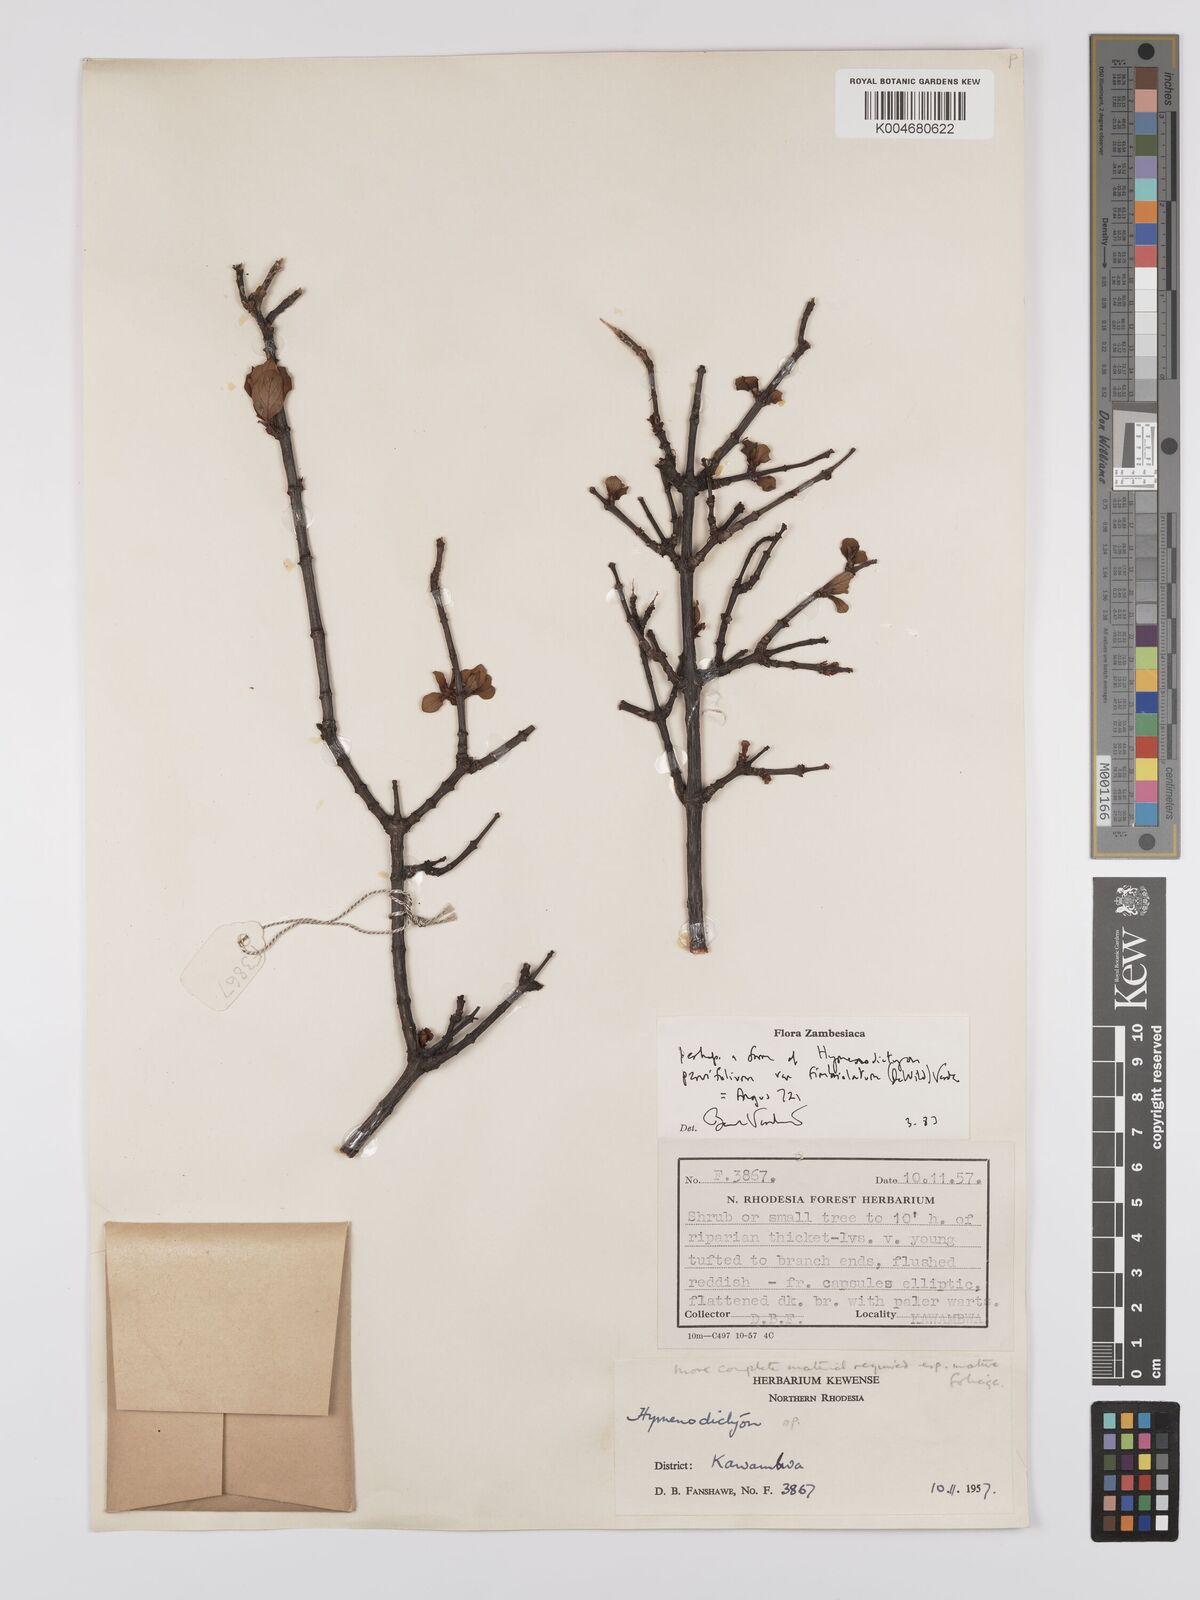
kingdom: Plantae
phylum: Tracheophyta
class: Magnoliopsida
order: Gentianales
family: Rubiaceae
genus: Hymenodictyon
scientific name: Hymenodictyon
